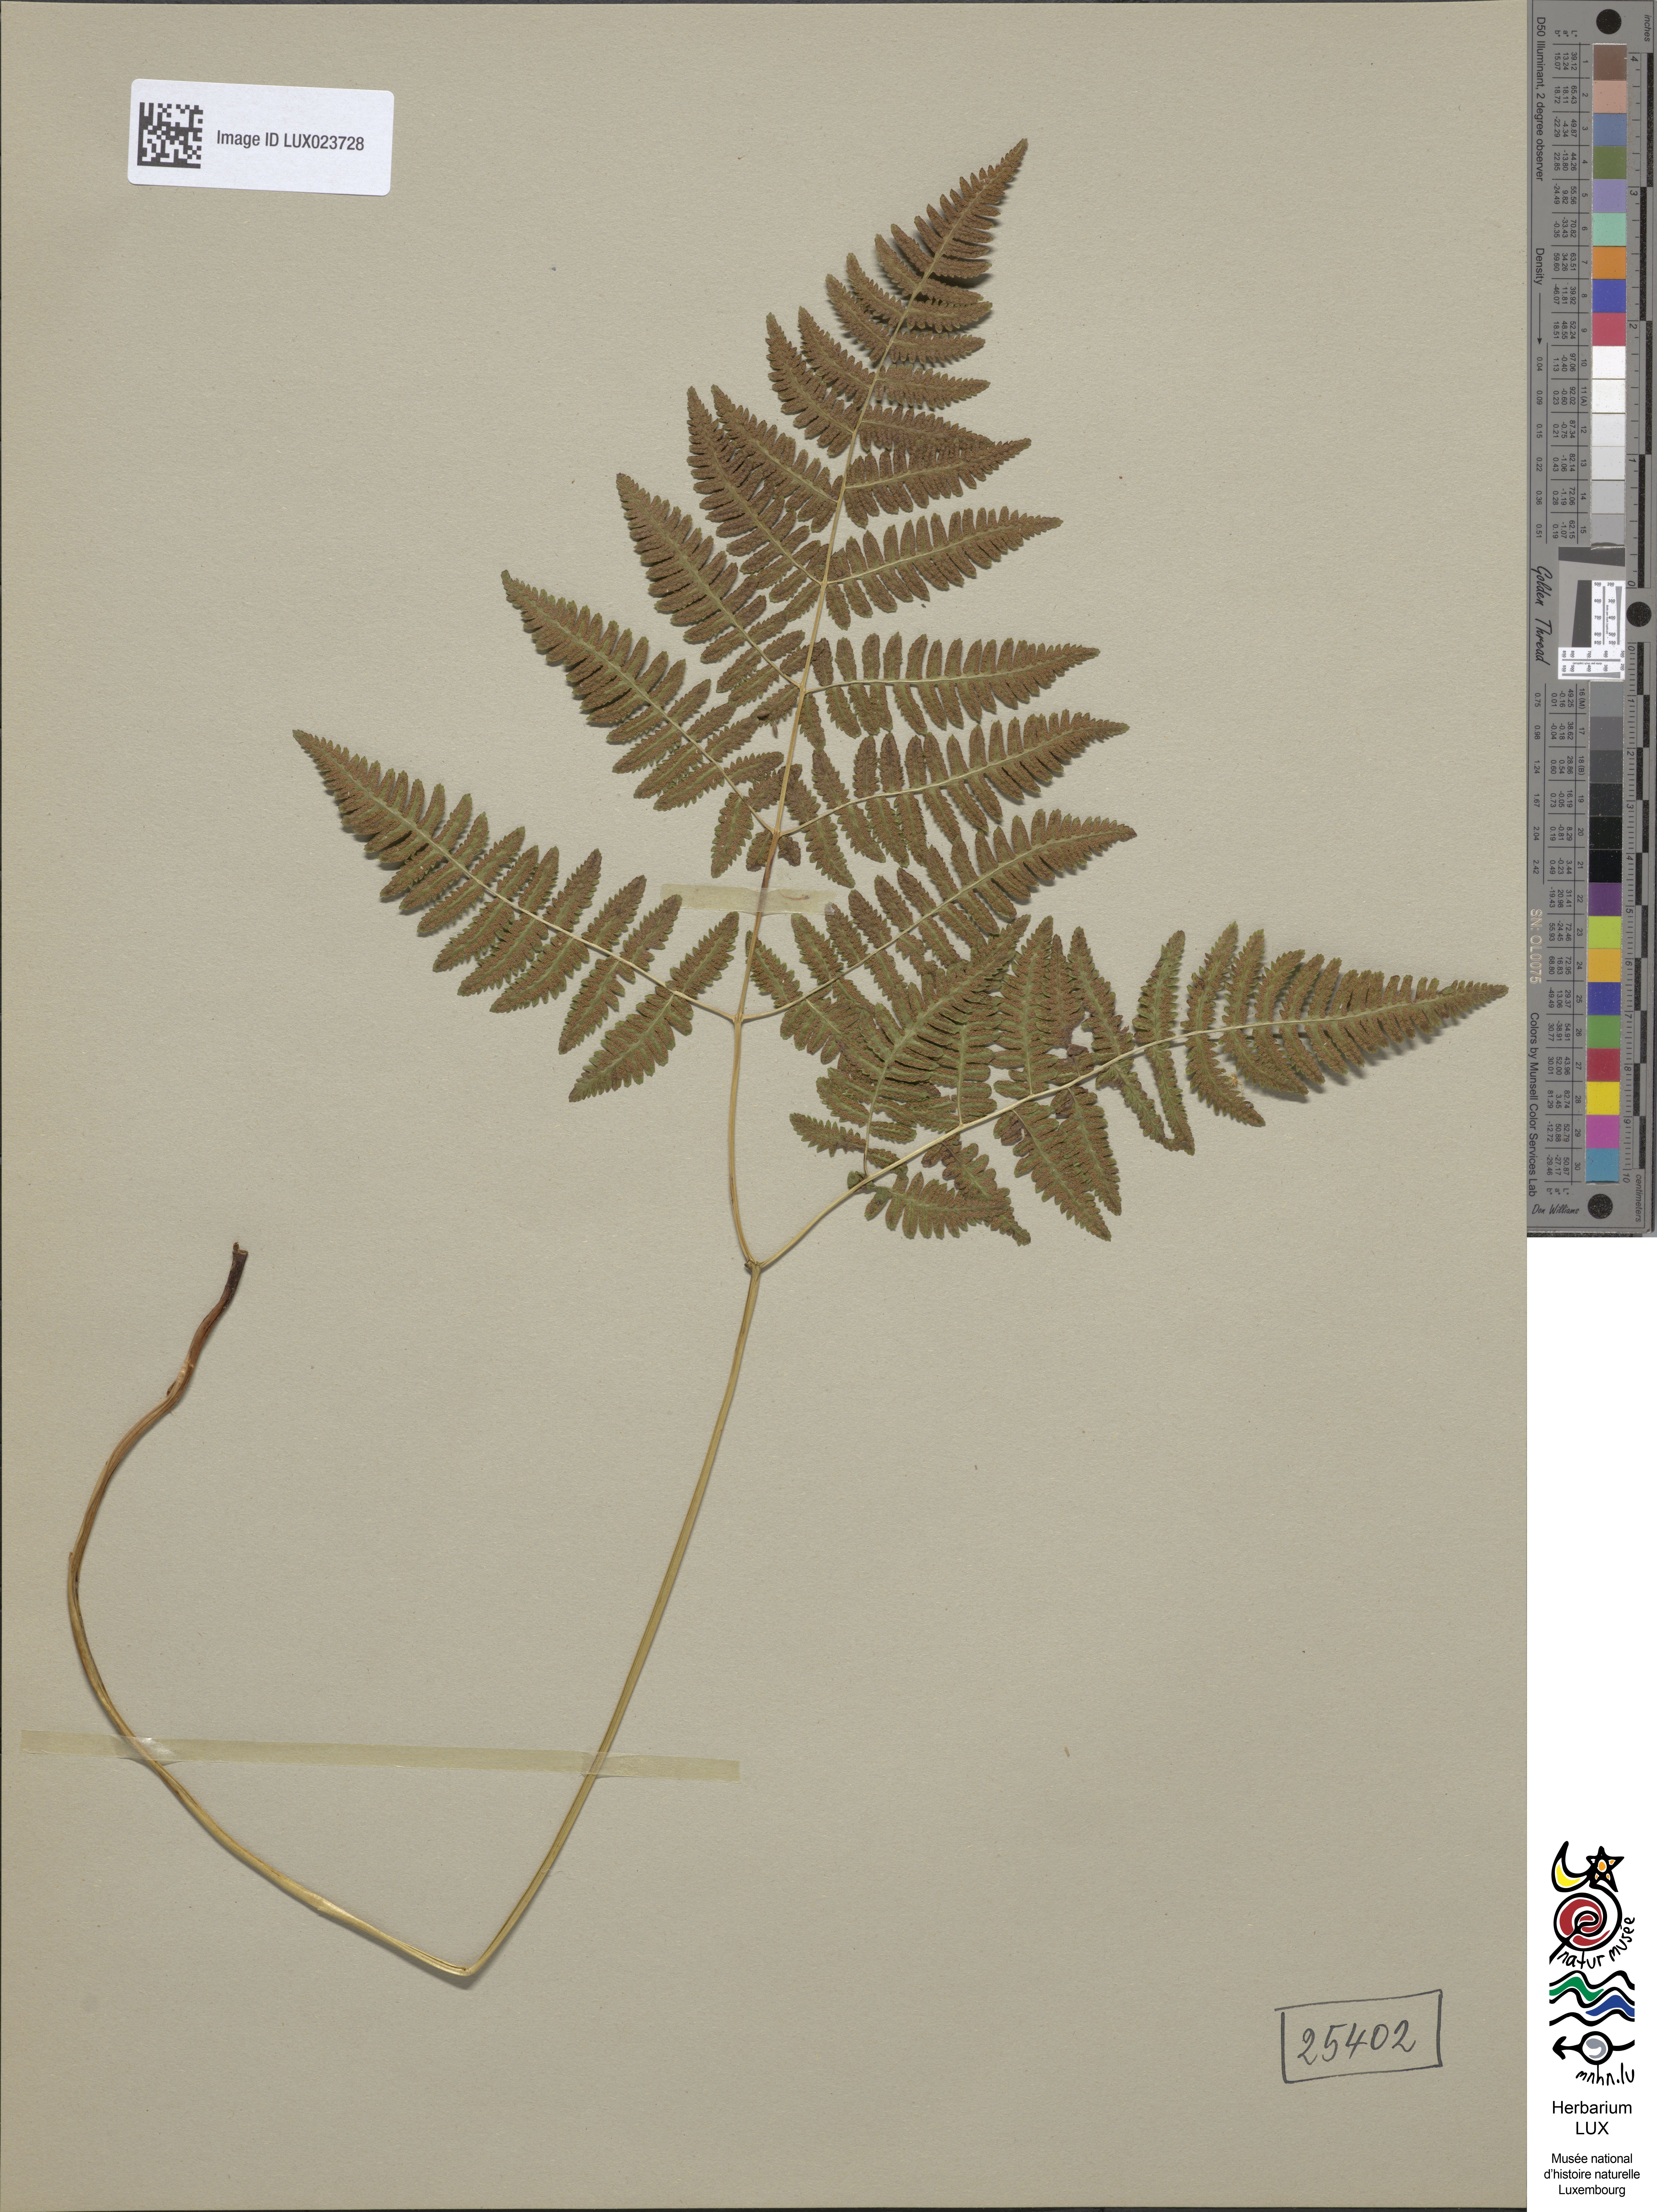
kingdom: Plantae
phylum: Tracheophyta
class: Polypodiopsida
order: Polypodiales
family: Cystopteridaceae
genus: Gymnocarpium
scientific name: Gymnocarpium robertianum
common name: Limestone fern
